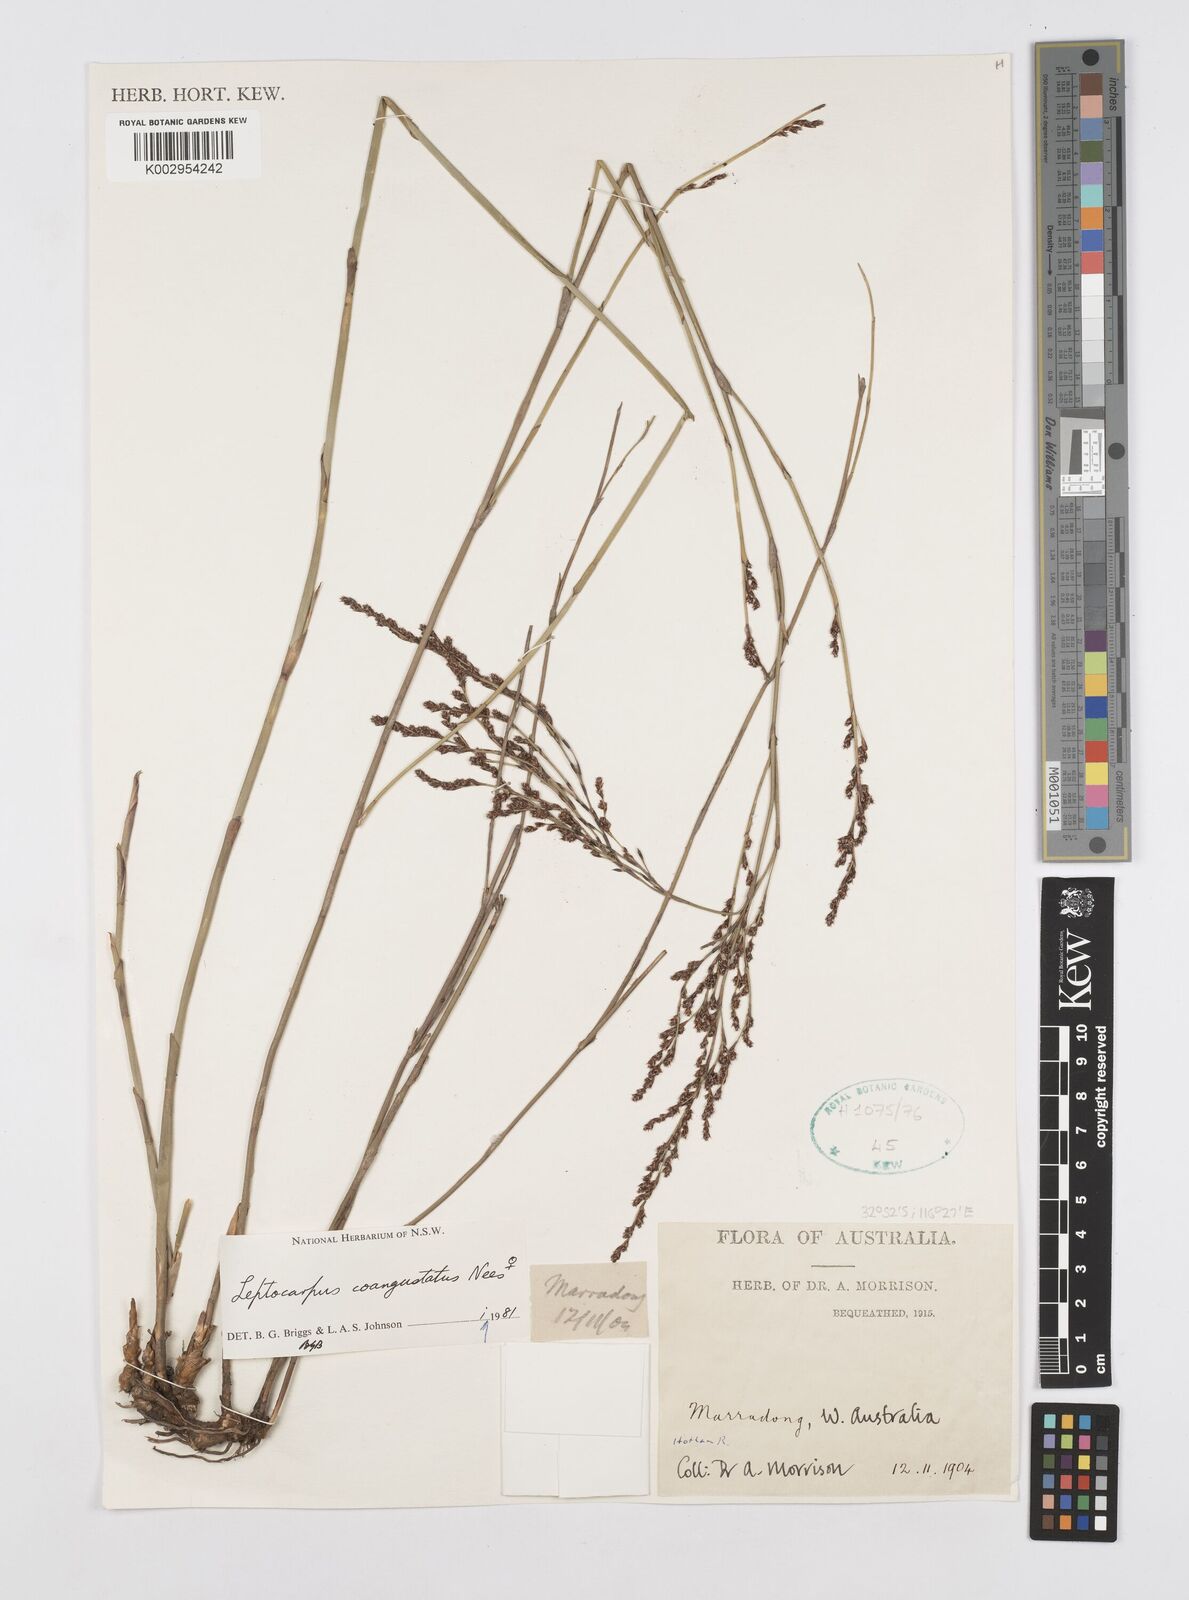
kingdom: Plantae
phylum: Tracheophyta
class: Liliopsida
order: Poales
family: Restionaceae
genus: Leptocarpus
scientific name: Leptocarpus coangustatus
